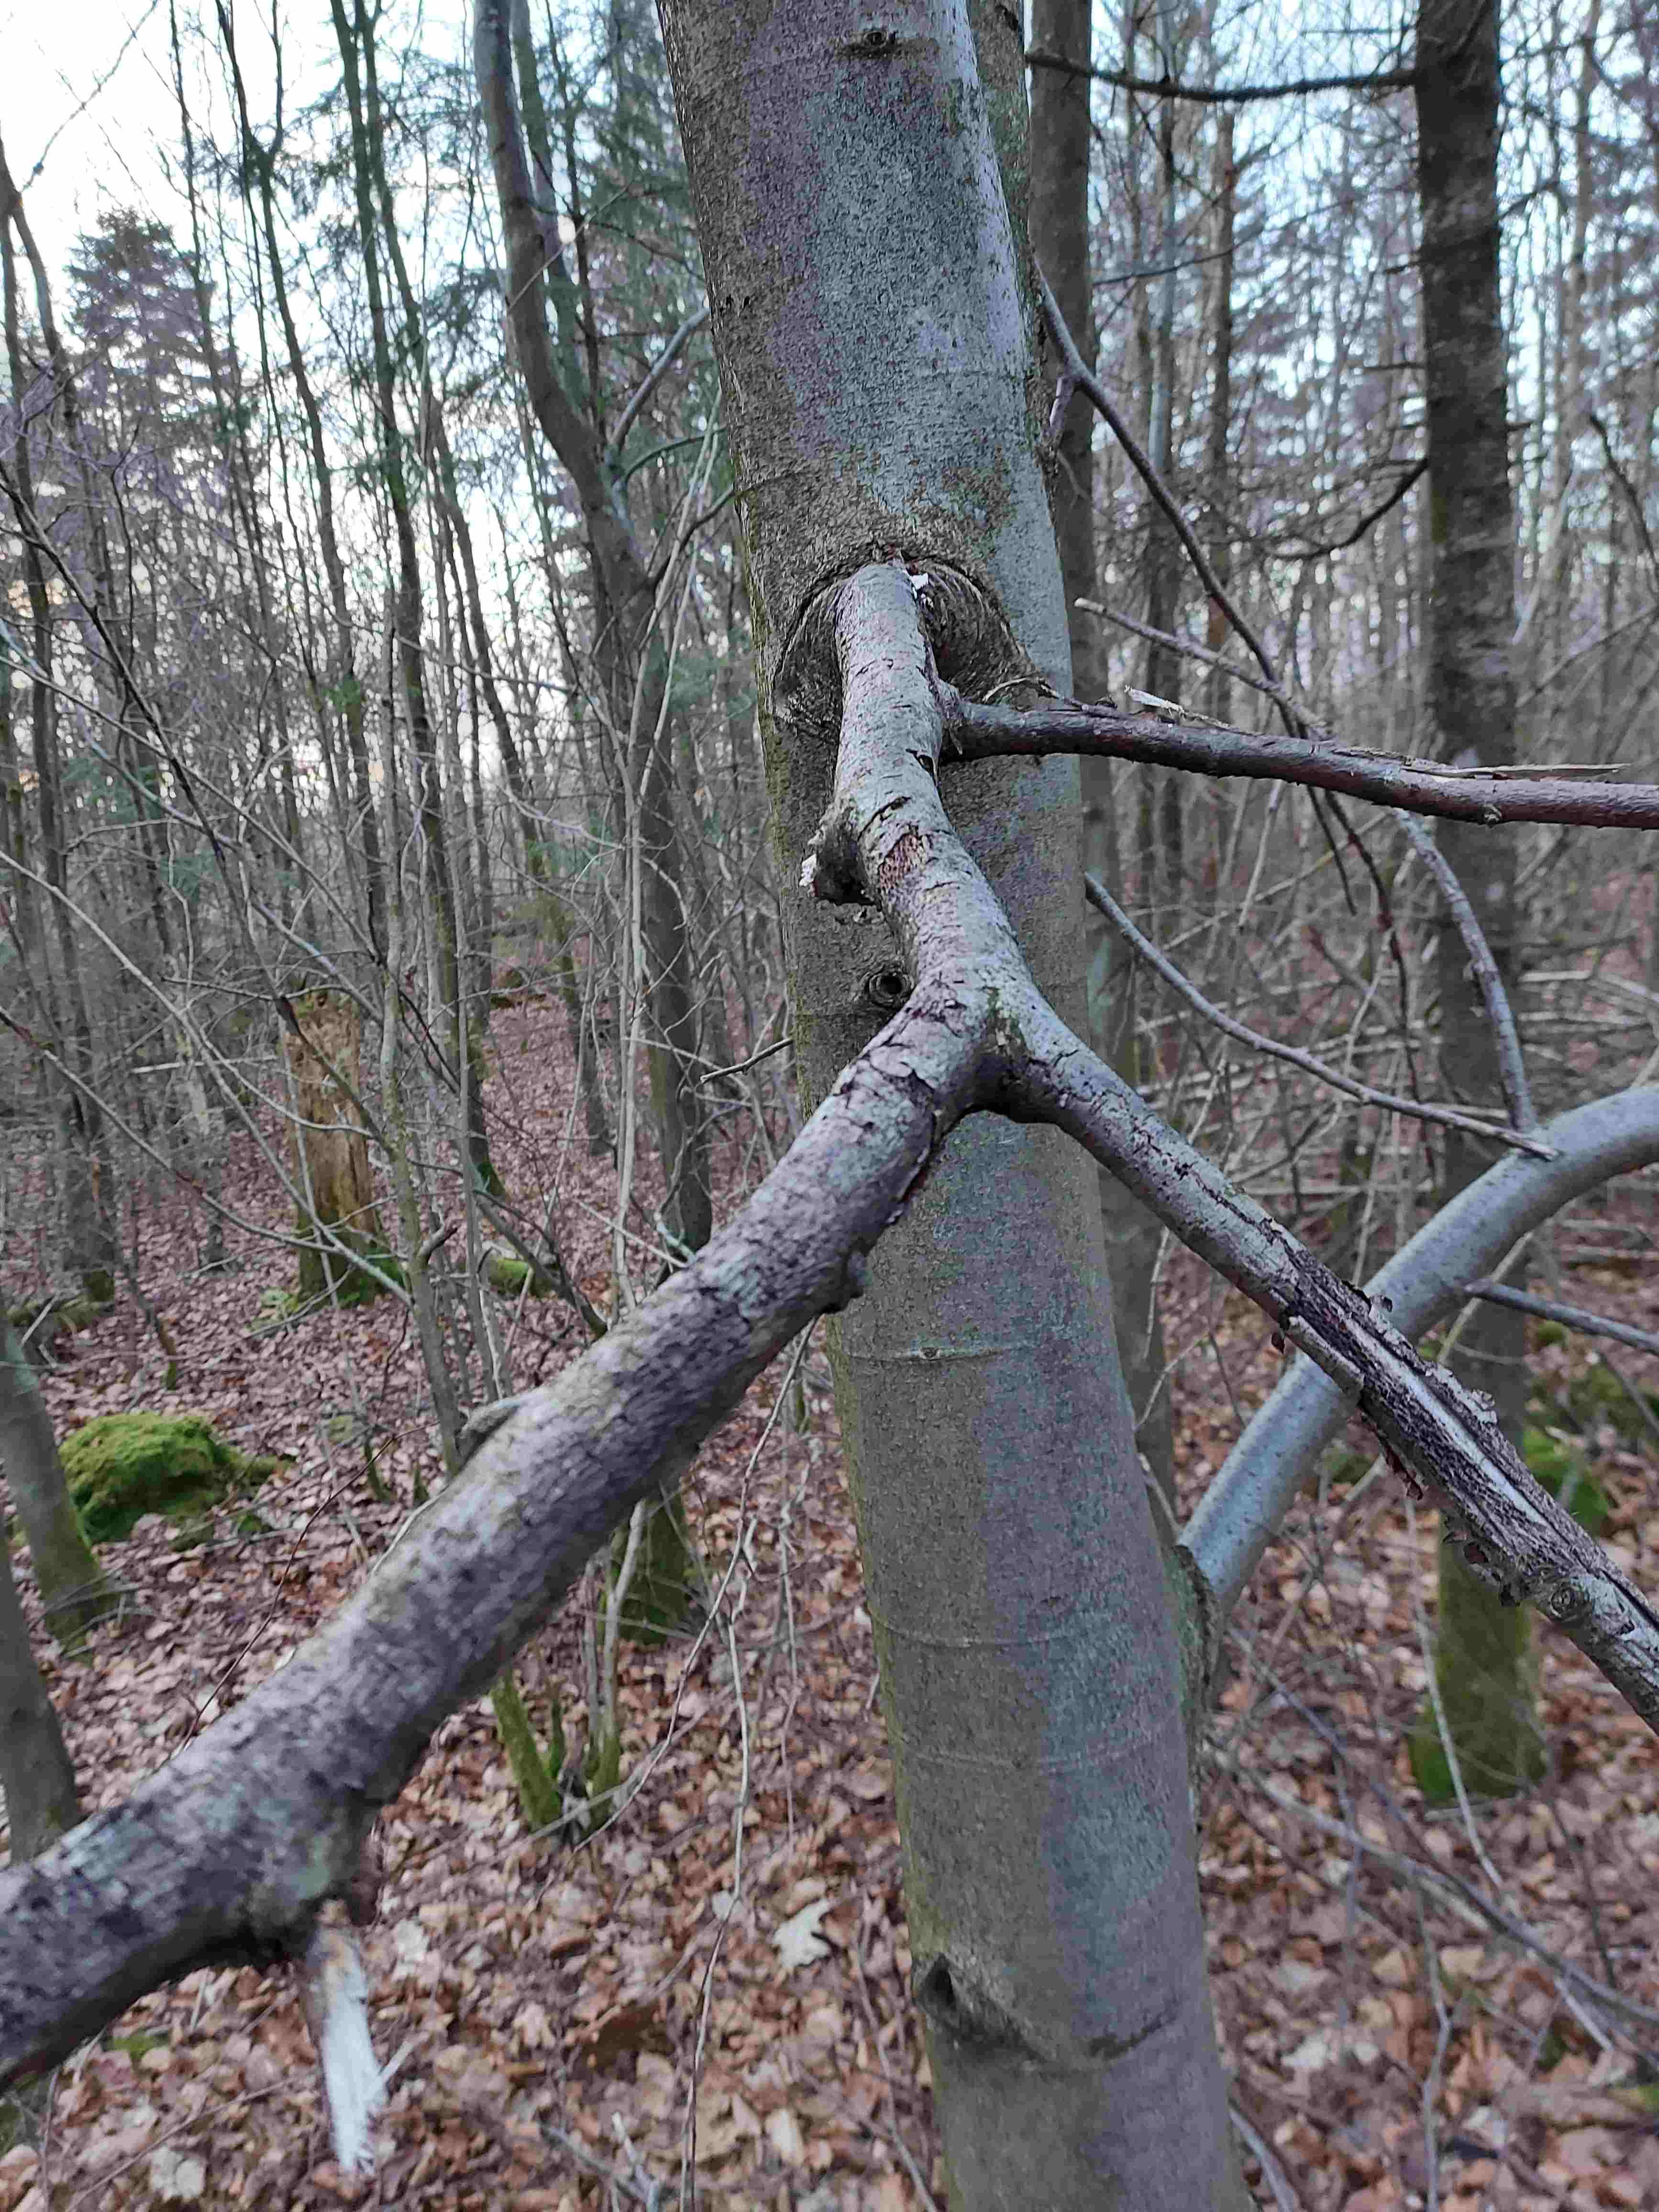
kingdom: Fungi
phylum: Ascomycota
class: Eurotiomycetes
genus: Glyphium
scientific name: Glyphium elatum
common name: kuløkse
